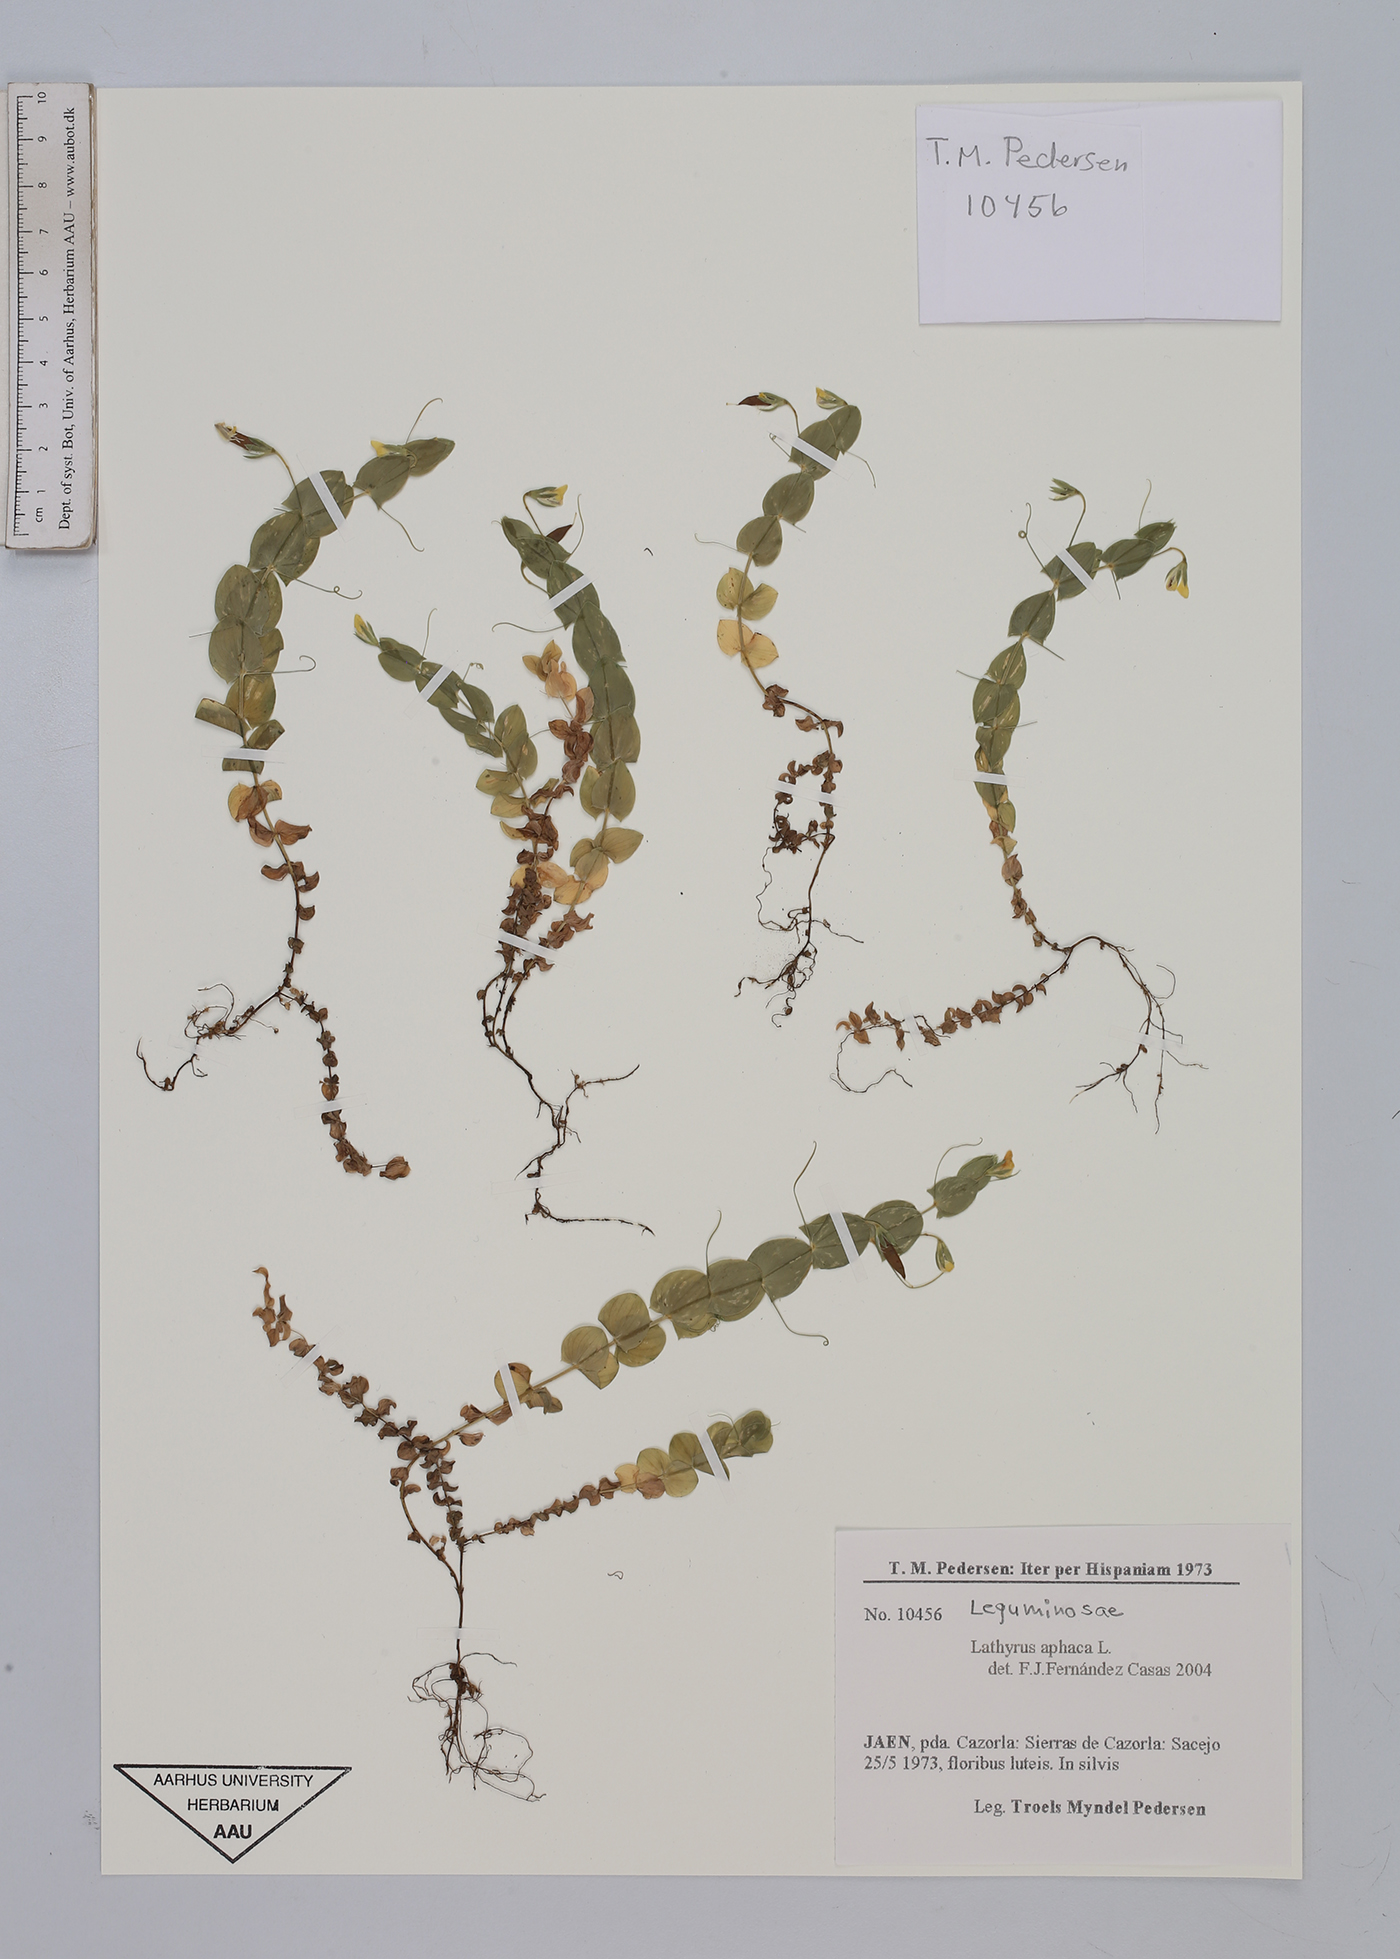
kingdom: Plantae
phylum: Tracheophyta
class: Magnoliopsida
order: Fabales
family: Fabaceae
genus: Lathyrus
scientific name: Lathyrus aphaca
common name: Yellow vetchling
